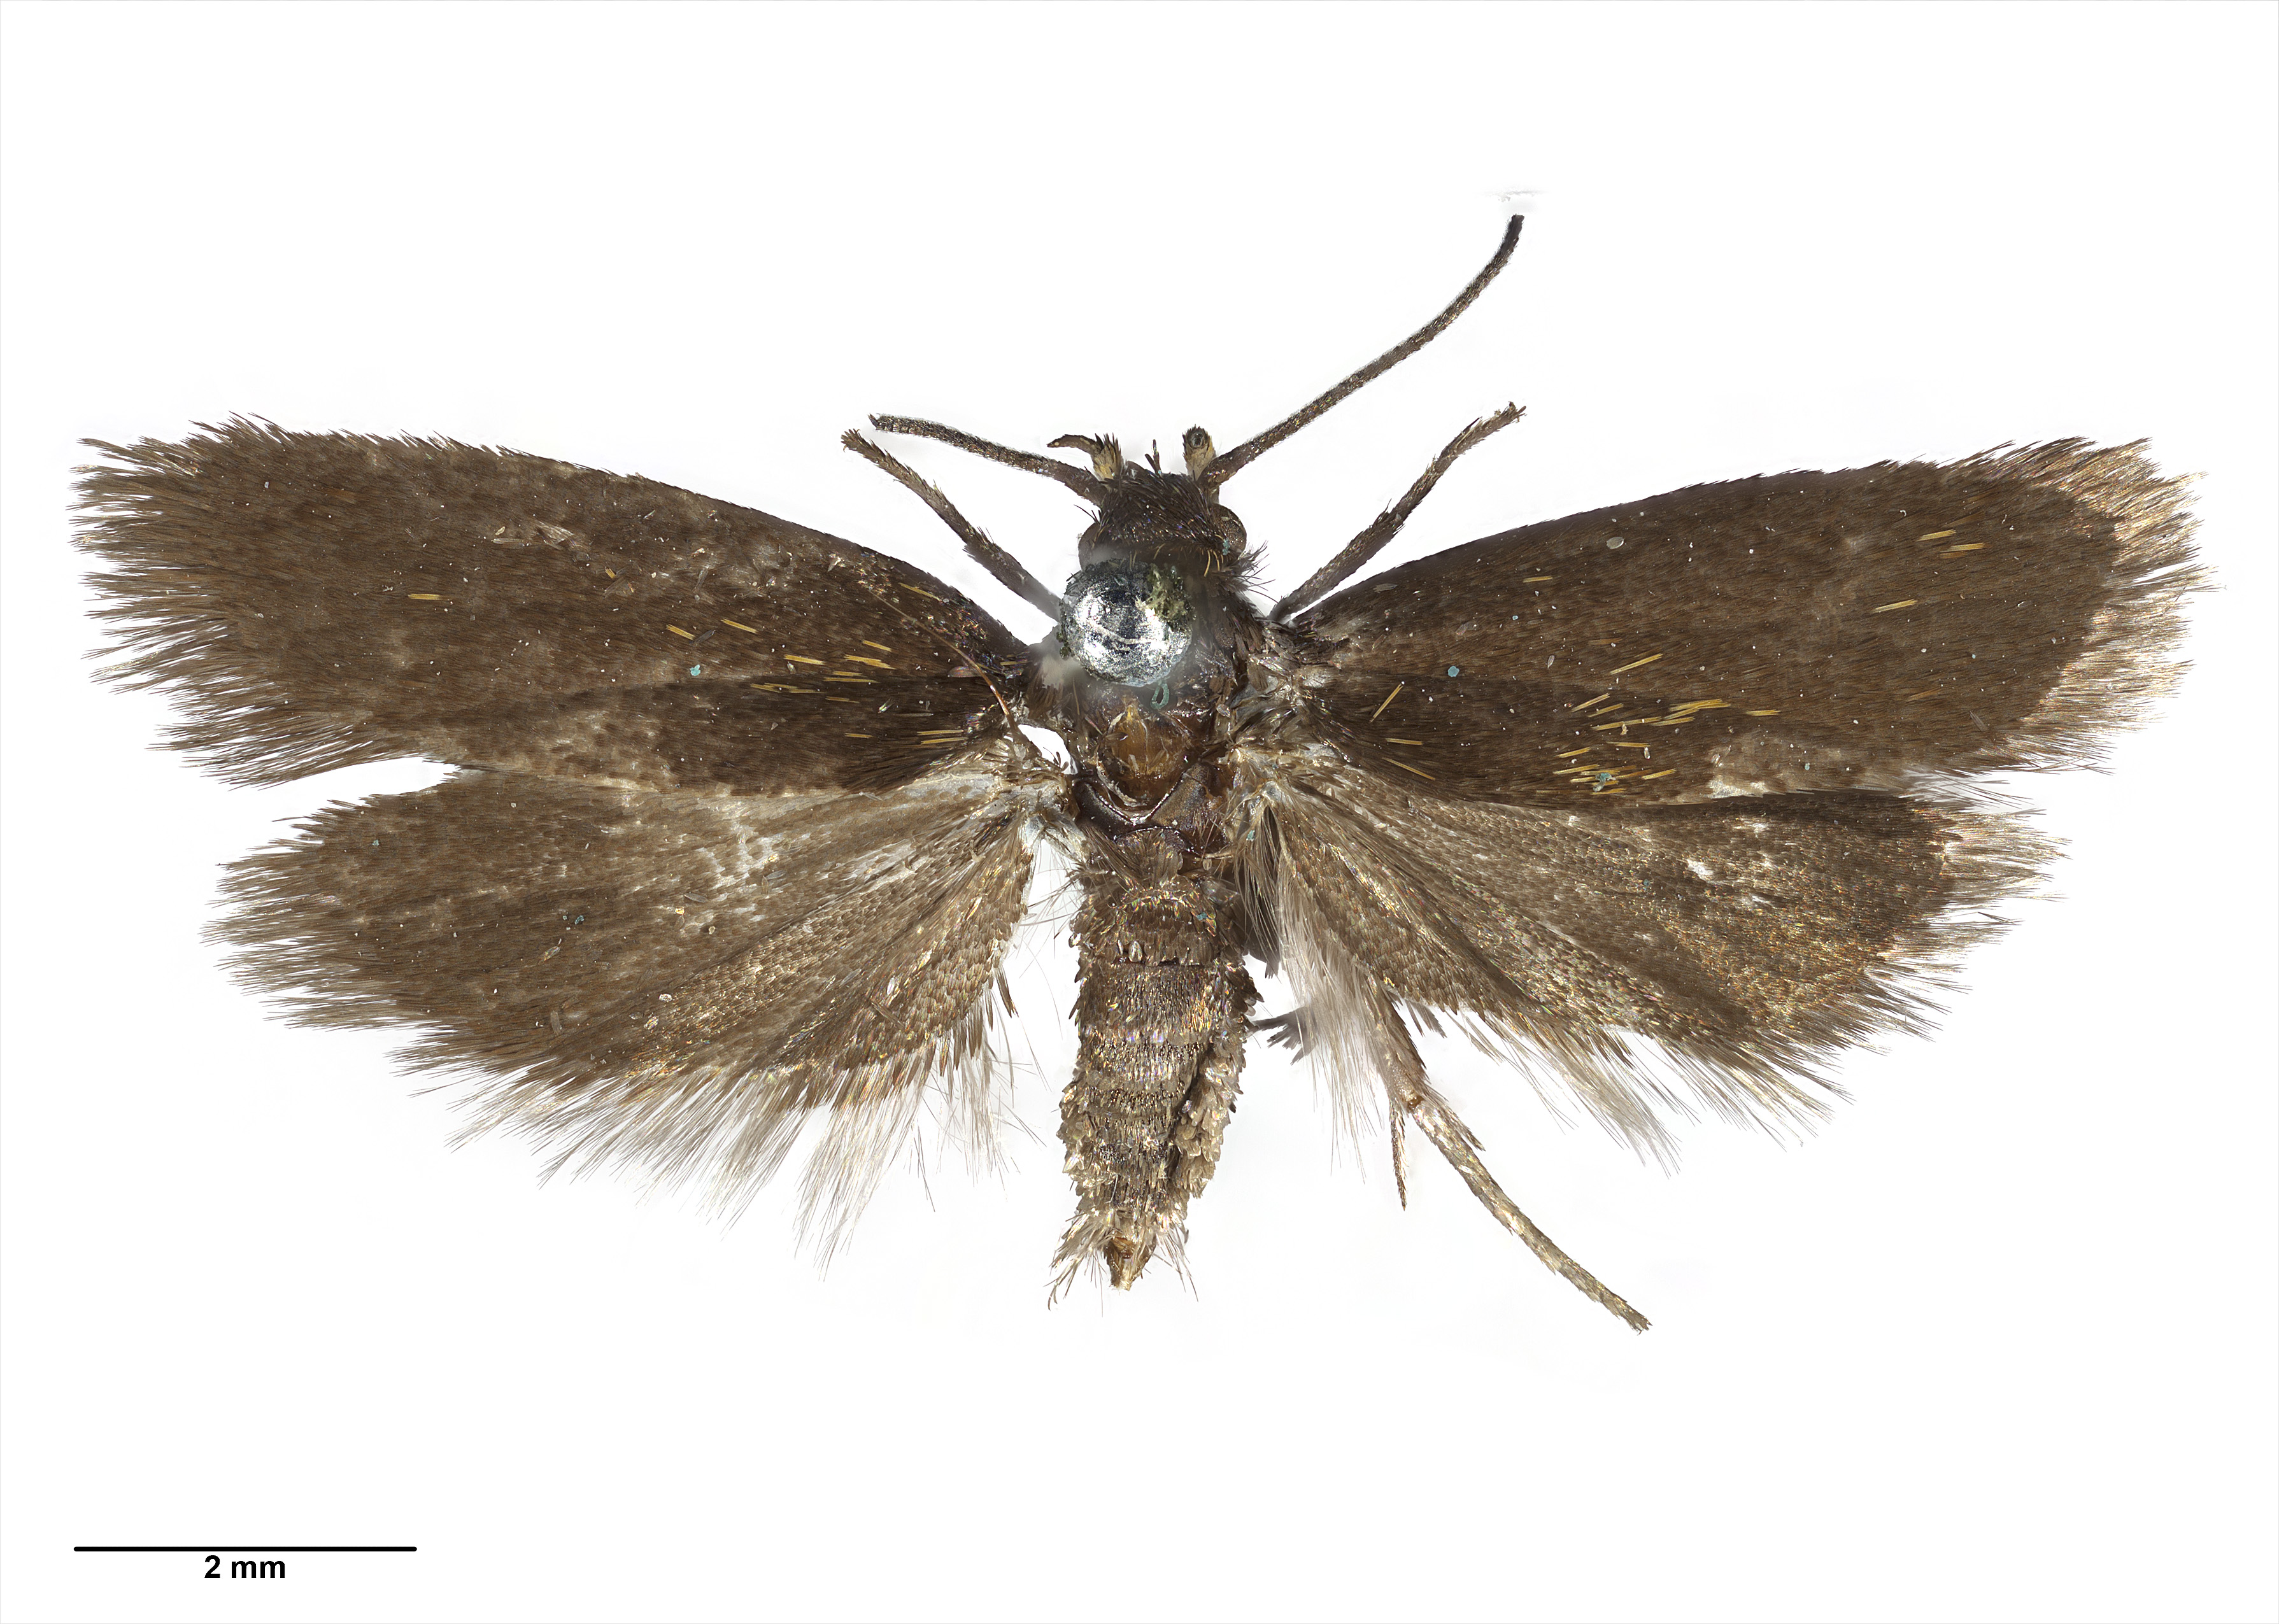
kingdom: Animalia
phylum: Arthropoda
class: Insecta
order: Lepidoptera
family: Oecophoridae
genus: Gymnobathra
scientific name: Gymnobathra squamea
